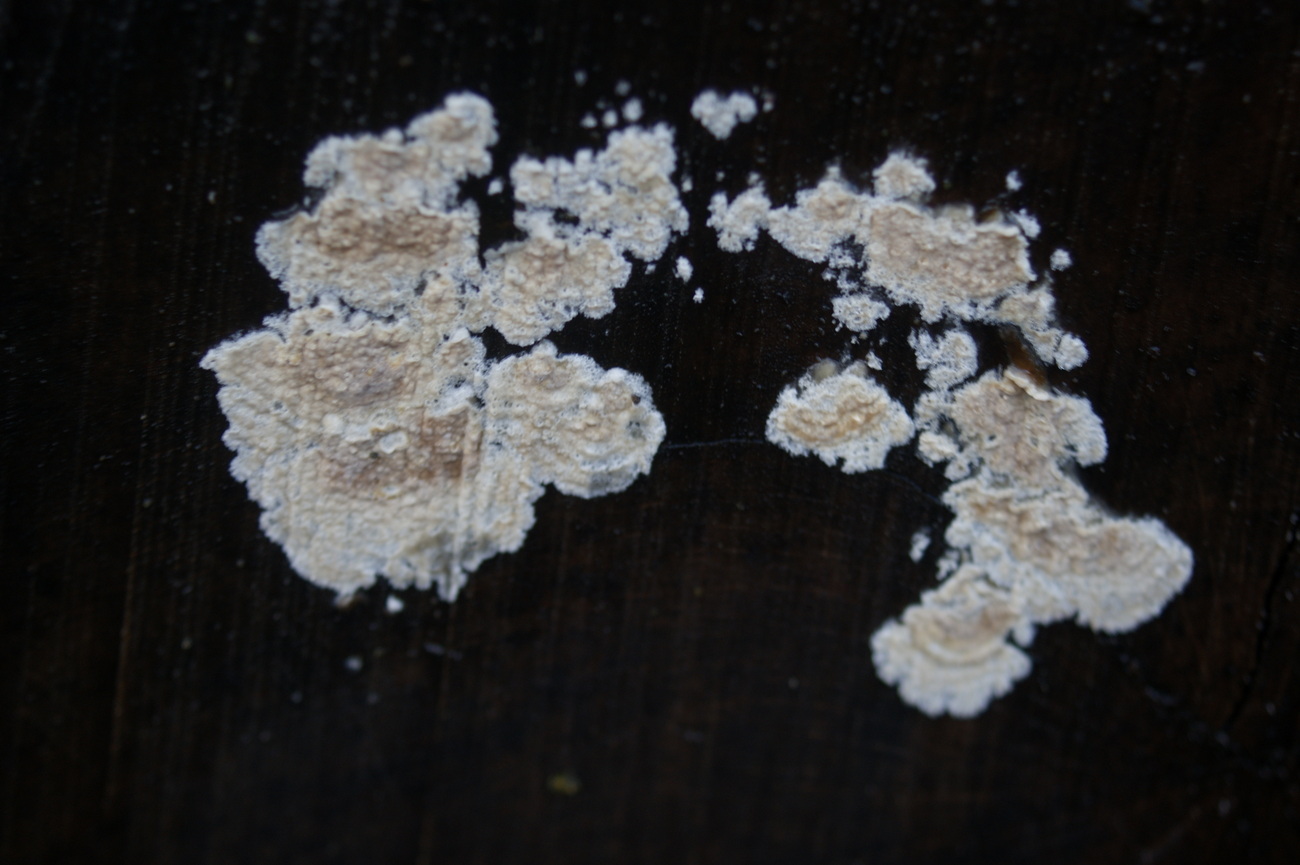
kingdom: Fungi
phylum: Basidiomycota
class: Agaricomycetes
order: Agaricales
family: Physalacriaceae
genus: Cylindrobasidium
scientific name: Cylindrobasidium evolvens
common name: sprækkehinde
